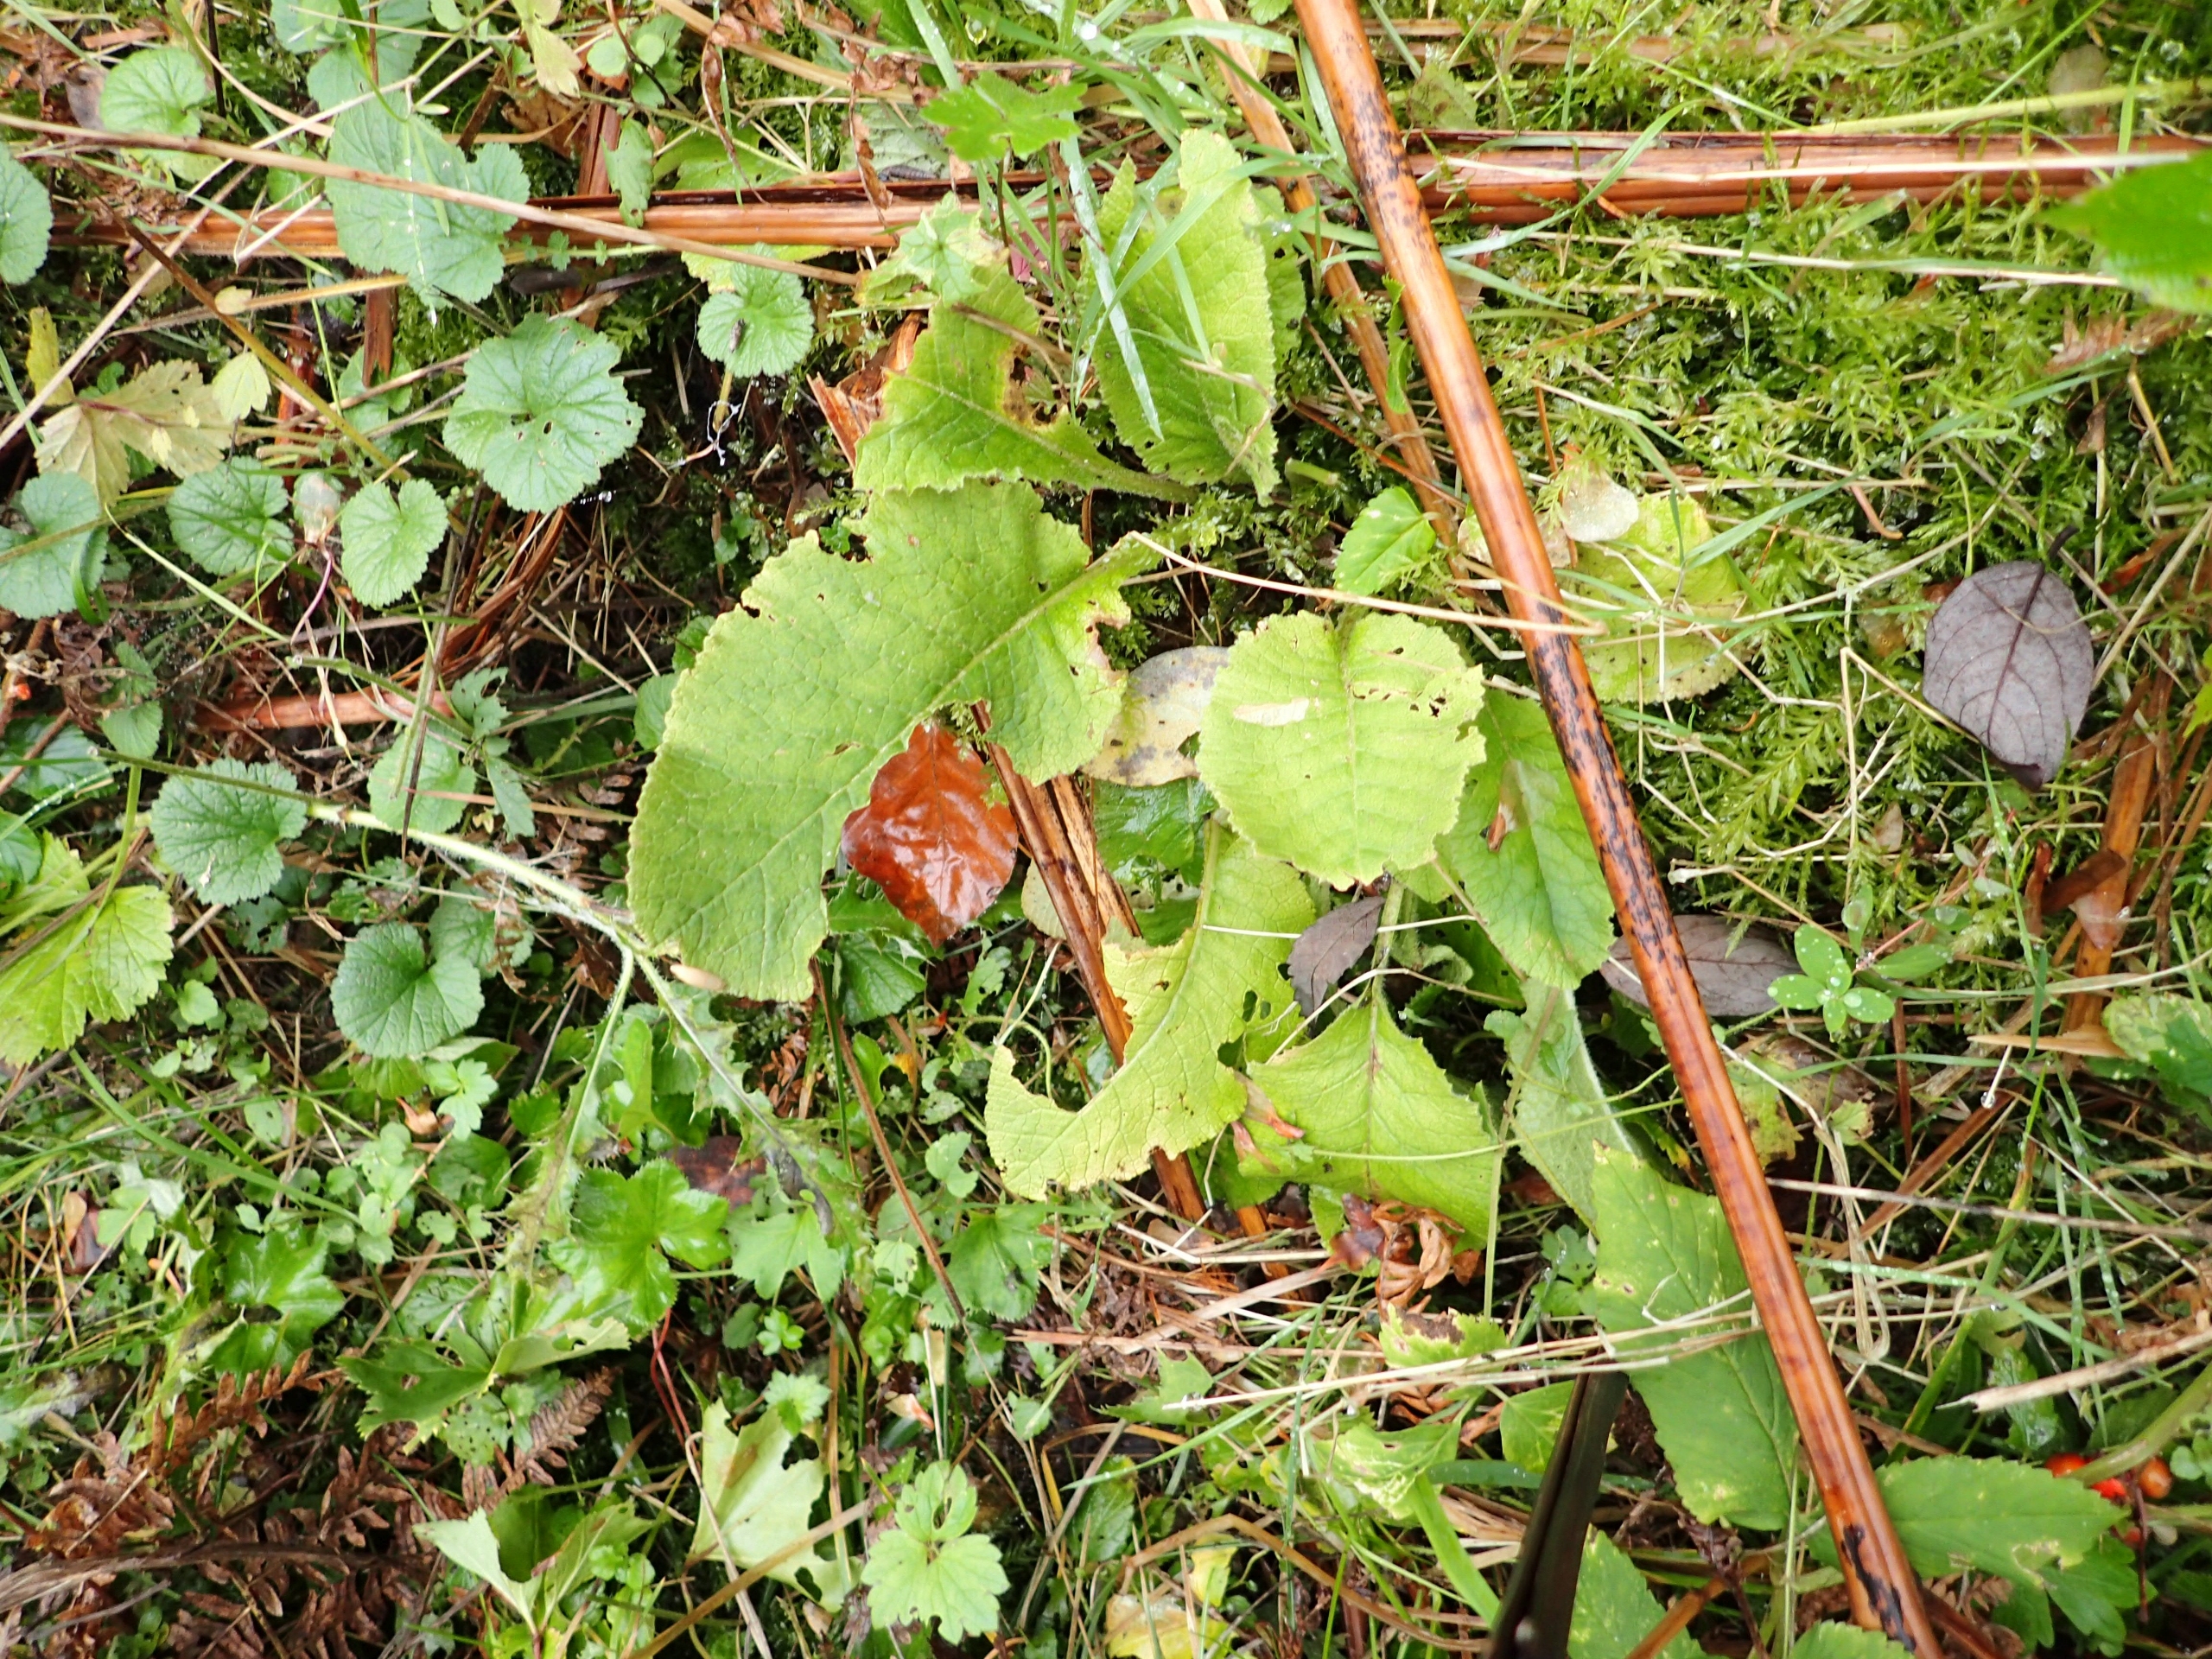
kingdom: Plantae
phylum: Tracheophyta
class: Magnoliopsida
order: Ericales
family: Primulaceae
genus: Primula
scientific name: Primula veris
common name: Hulkravet kodriver
